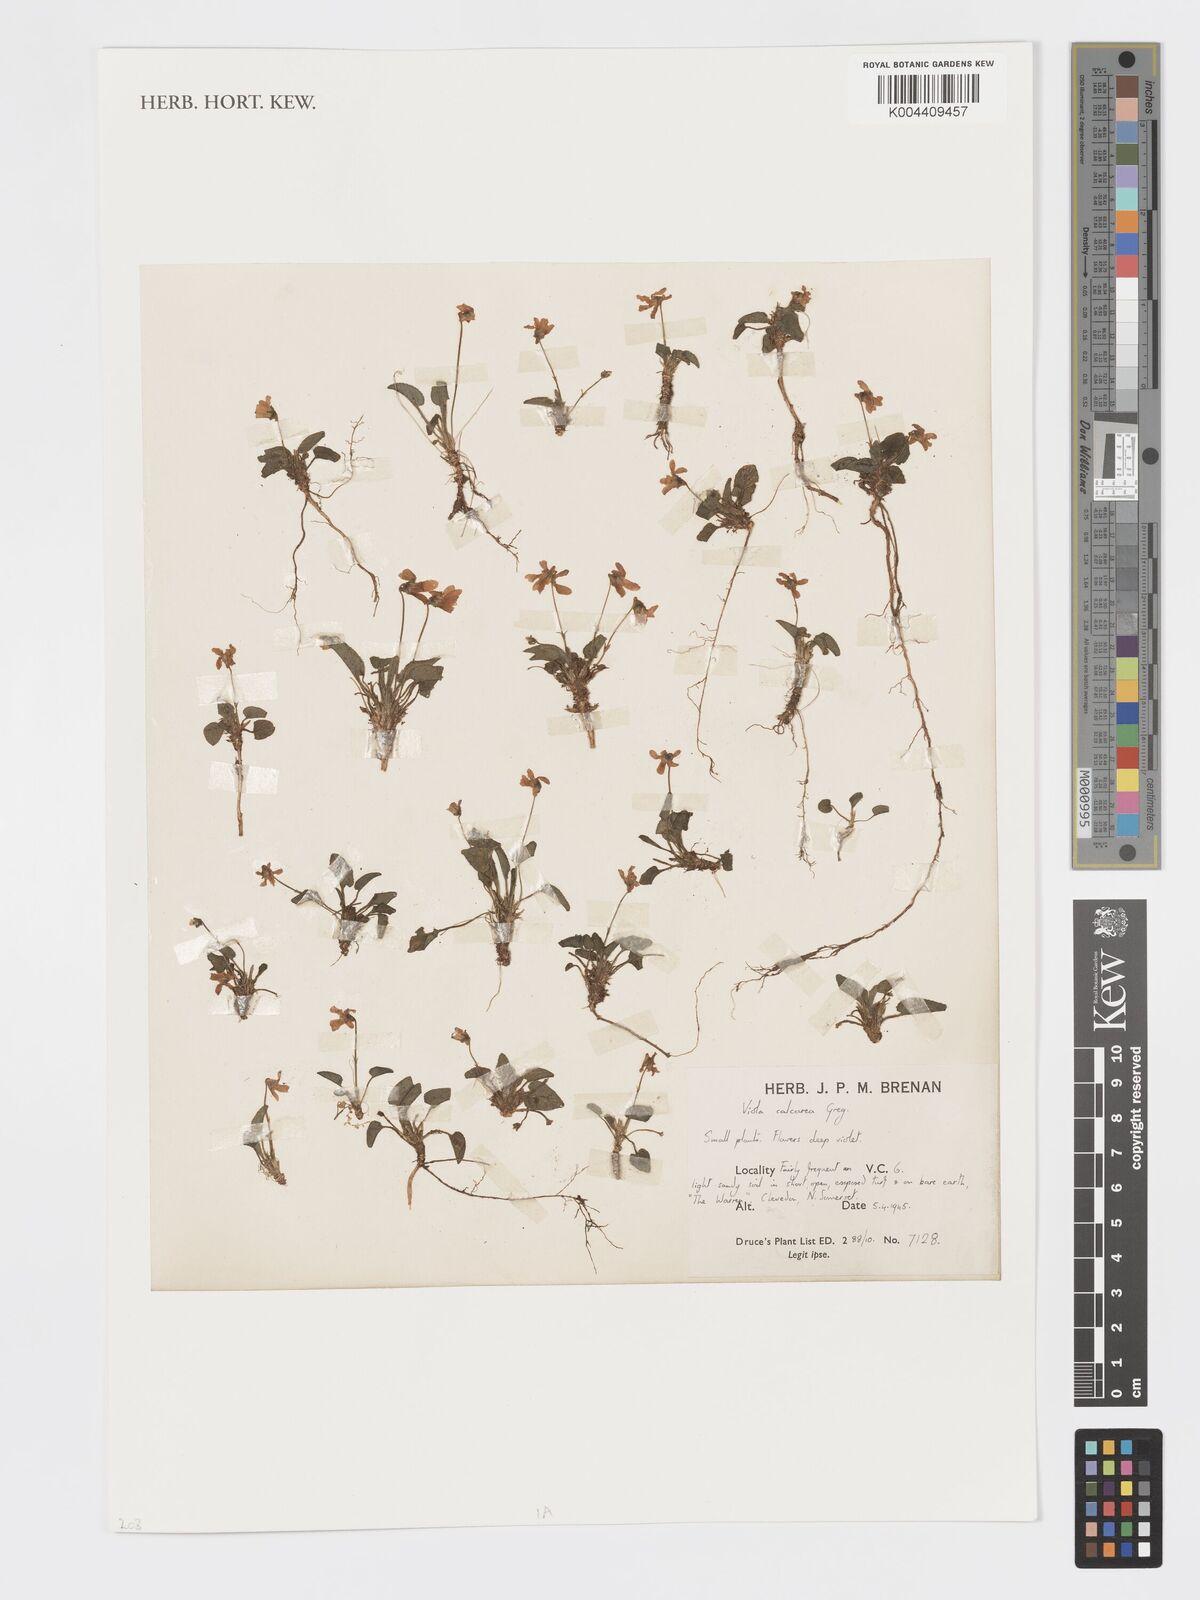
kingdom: Plantae
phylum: Tracheophyta
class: Magnoliopsida
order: Malpighiales
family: Violaceae
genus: Viola
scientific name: Viola
